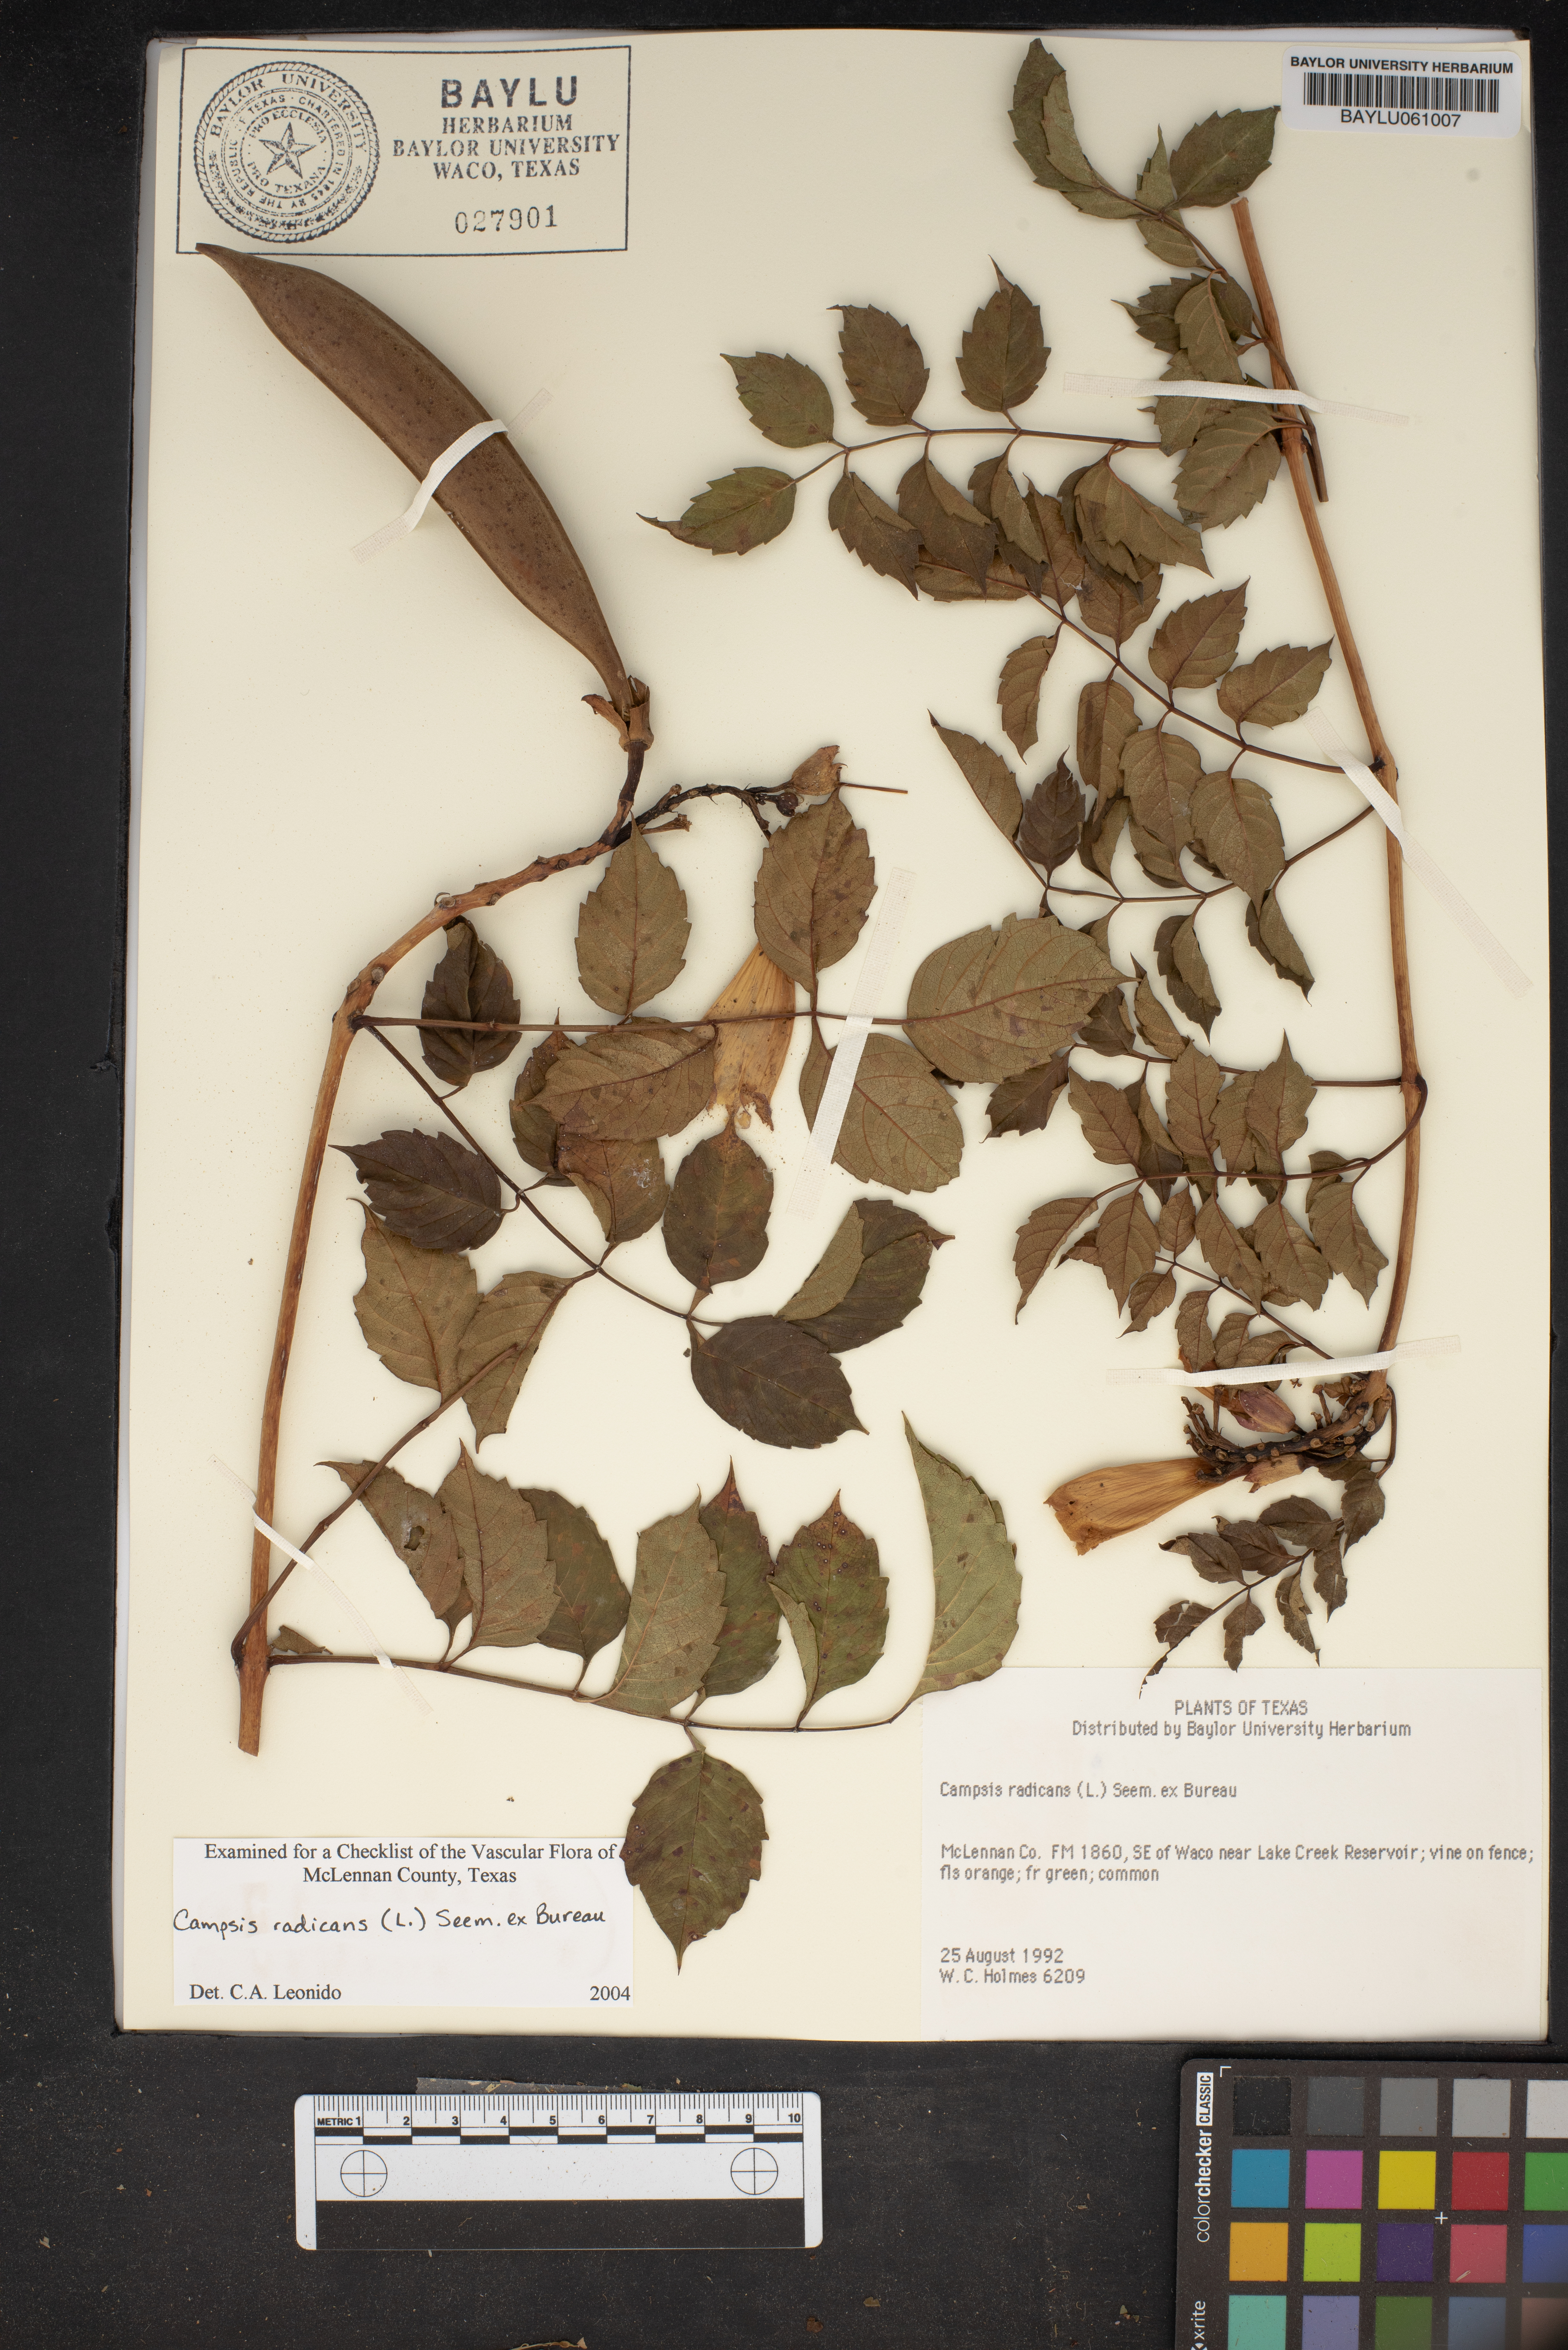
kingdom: Plantae
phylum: Tracheophyta
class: Magnoliopsida
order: Lamiales
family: Bignoniaceae
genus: Campsis
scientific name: Campsis radicans
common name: Trumpet-creeper
